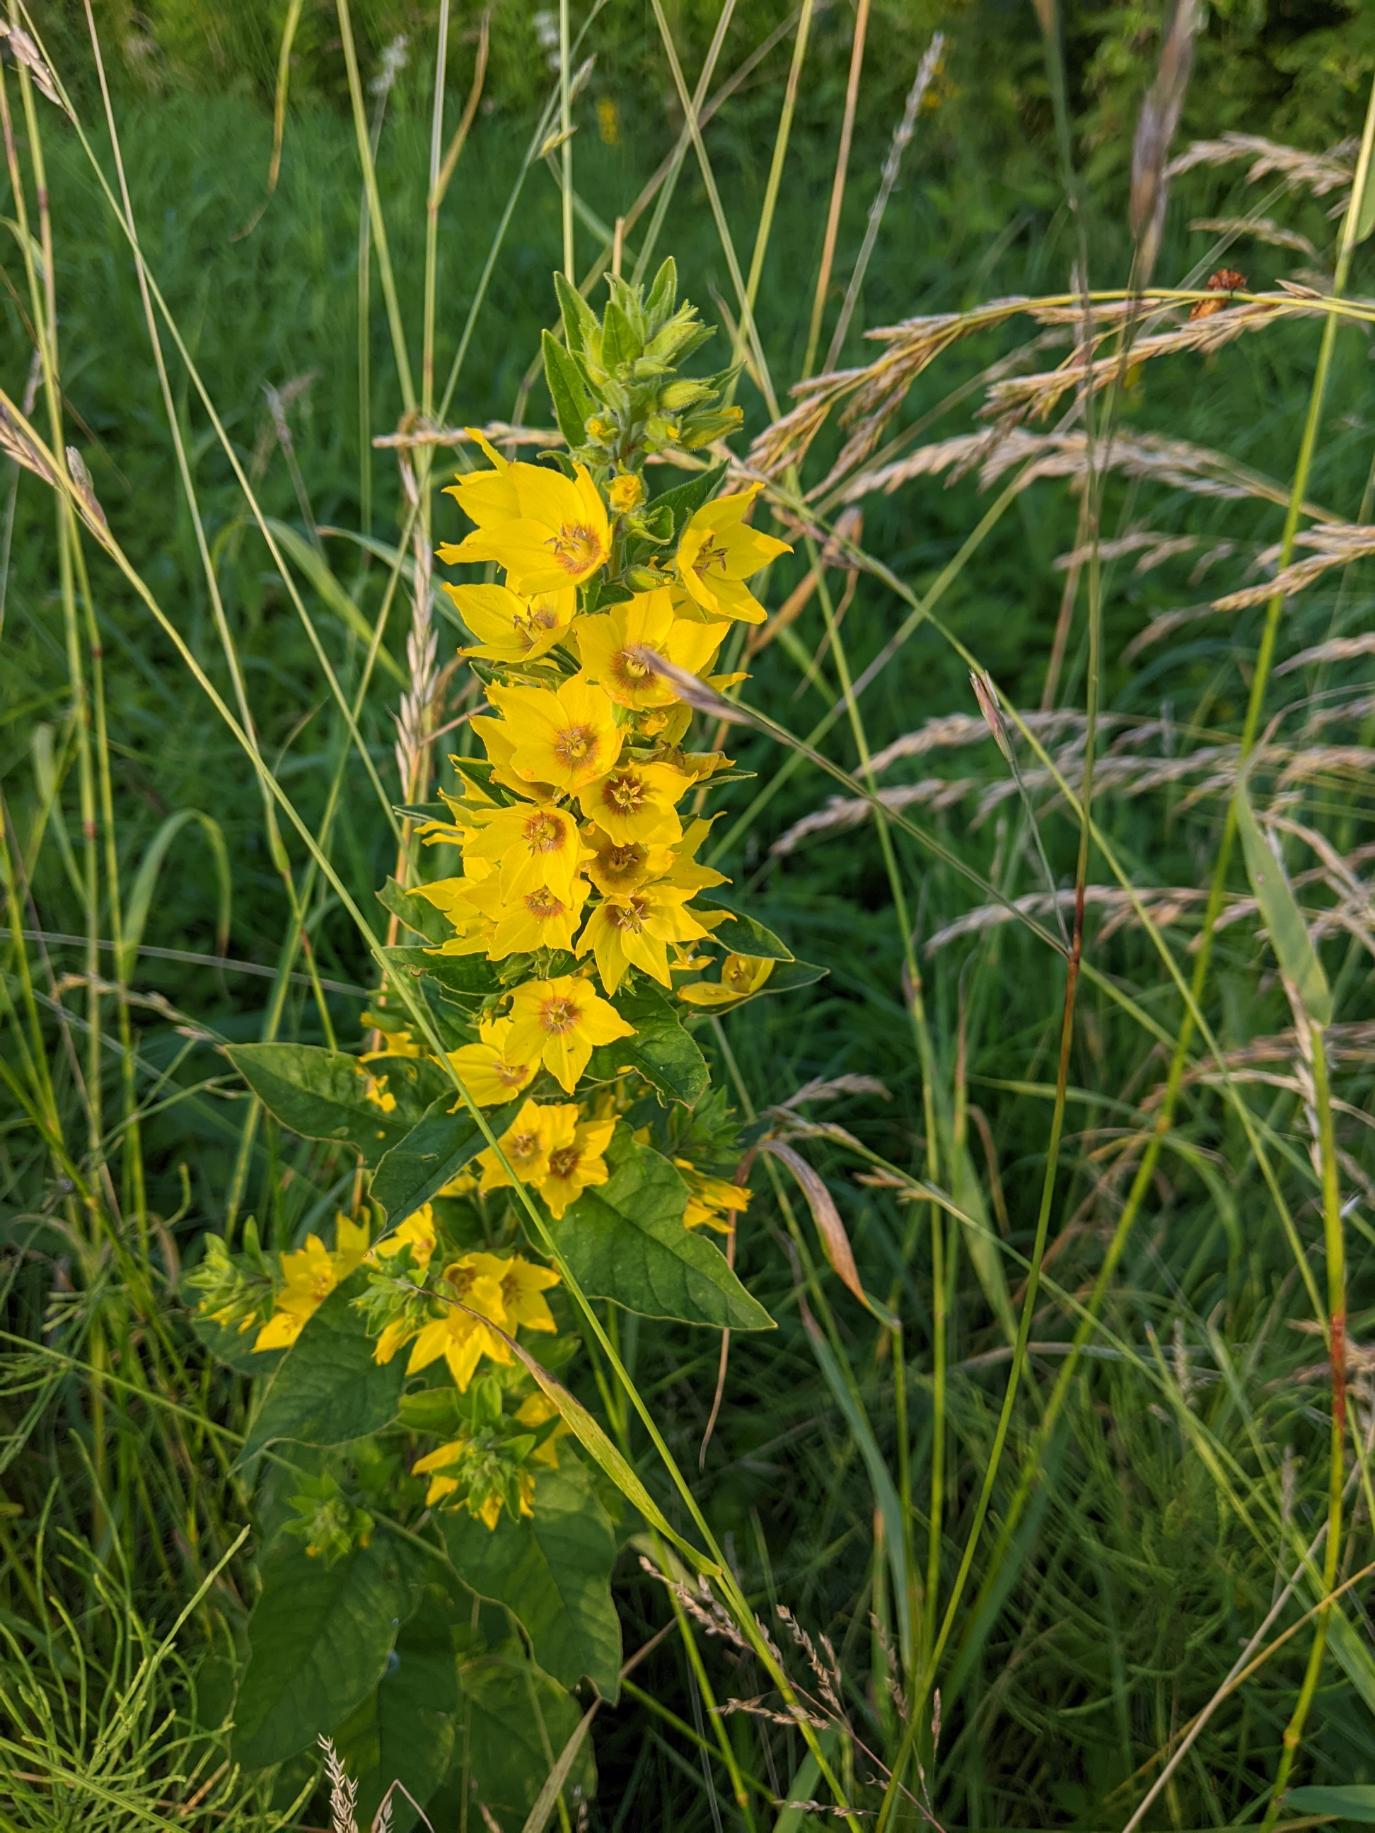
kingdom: Plantae
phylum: Tracheophyta
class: Magnoliopsida
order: Ericales
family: Primulaceae
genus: Lysimachia
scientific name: Lysimachia punctata
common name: Prikbladet fredløs
